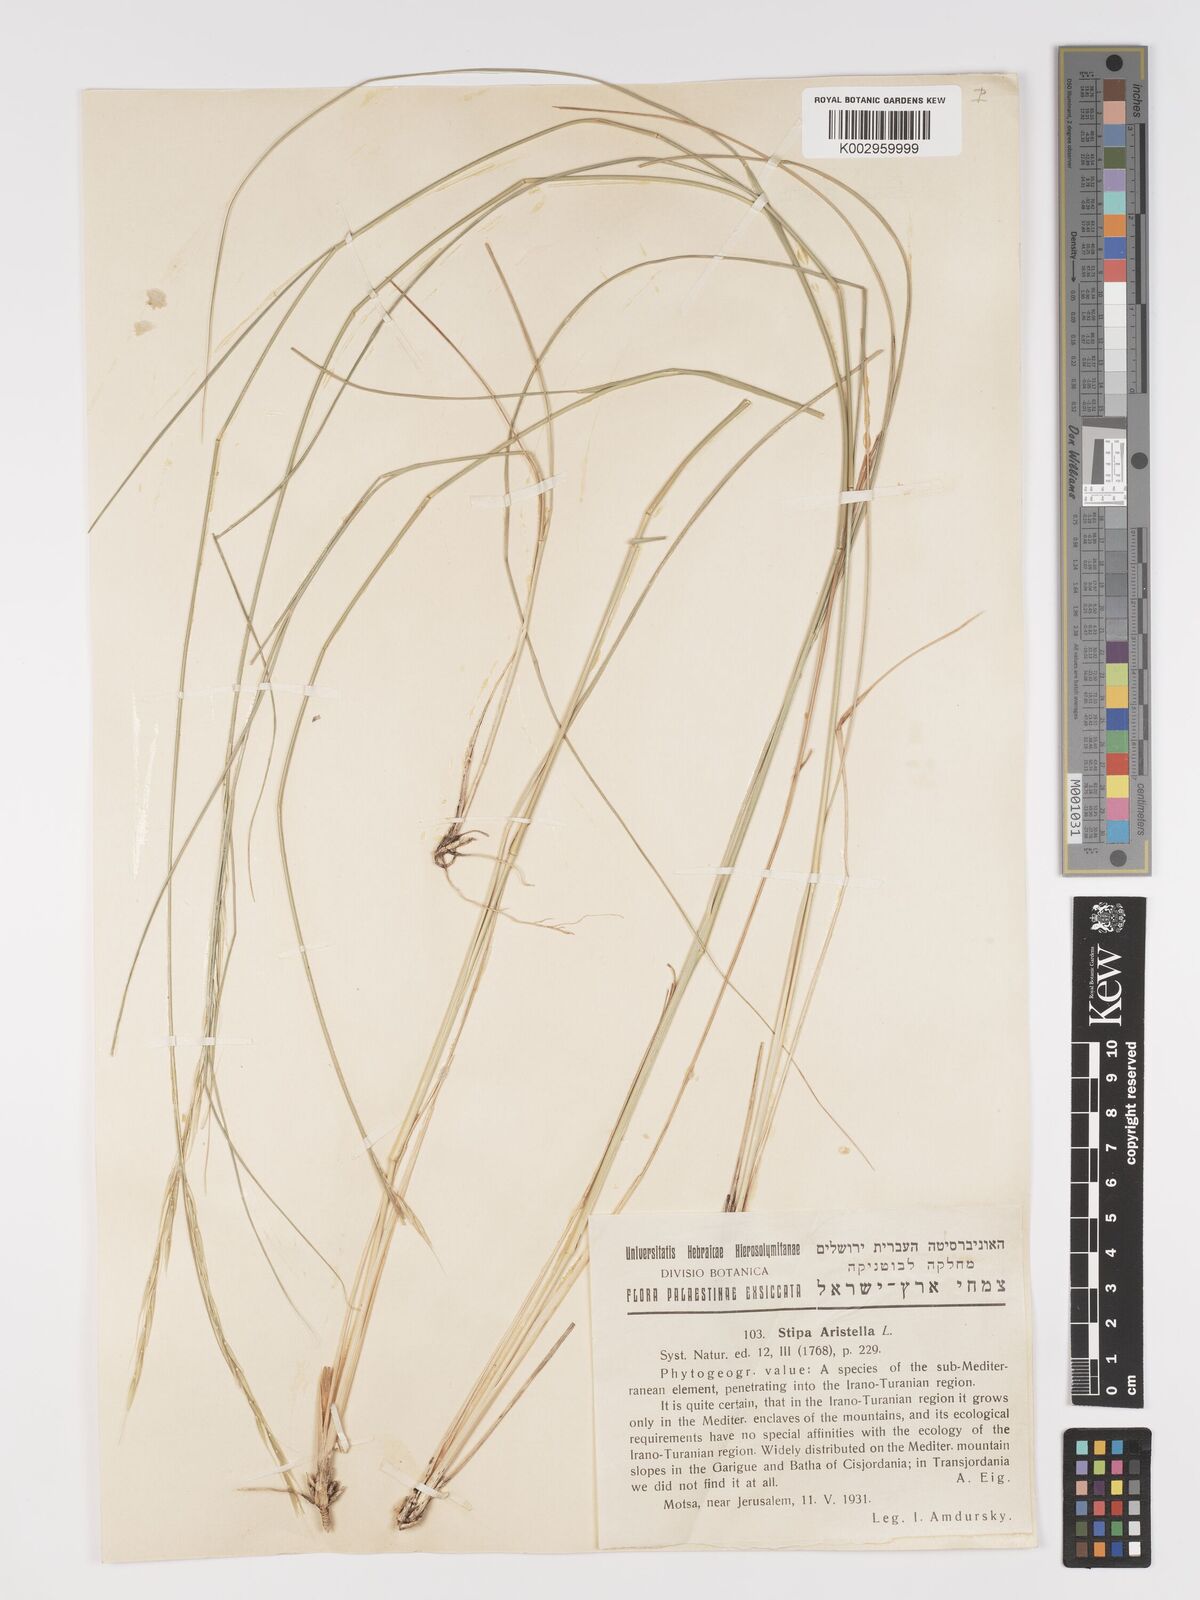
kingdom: Plantae
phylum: Tracheophyta
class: Liliopsida
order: Poales
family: Poaceae
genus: Achnatherum
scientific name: Achnatherum bromoides
